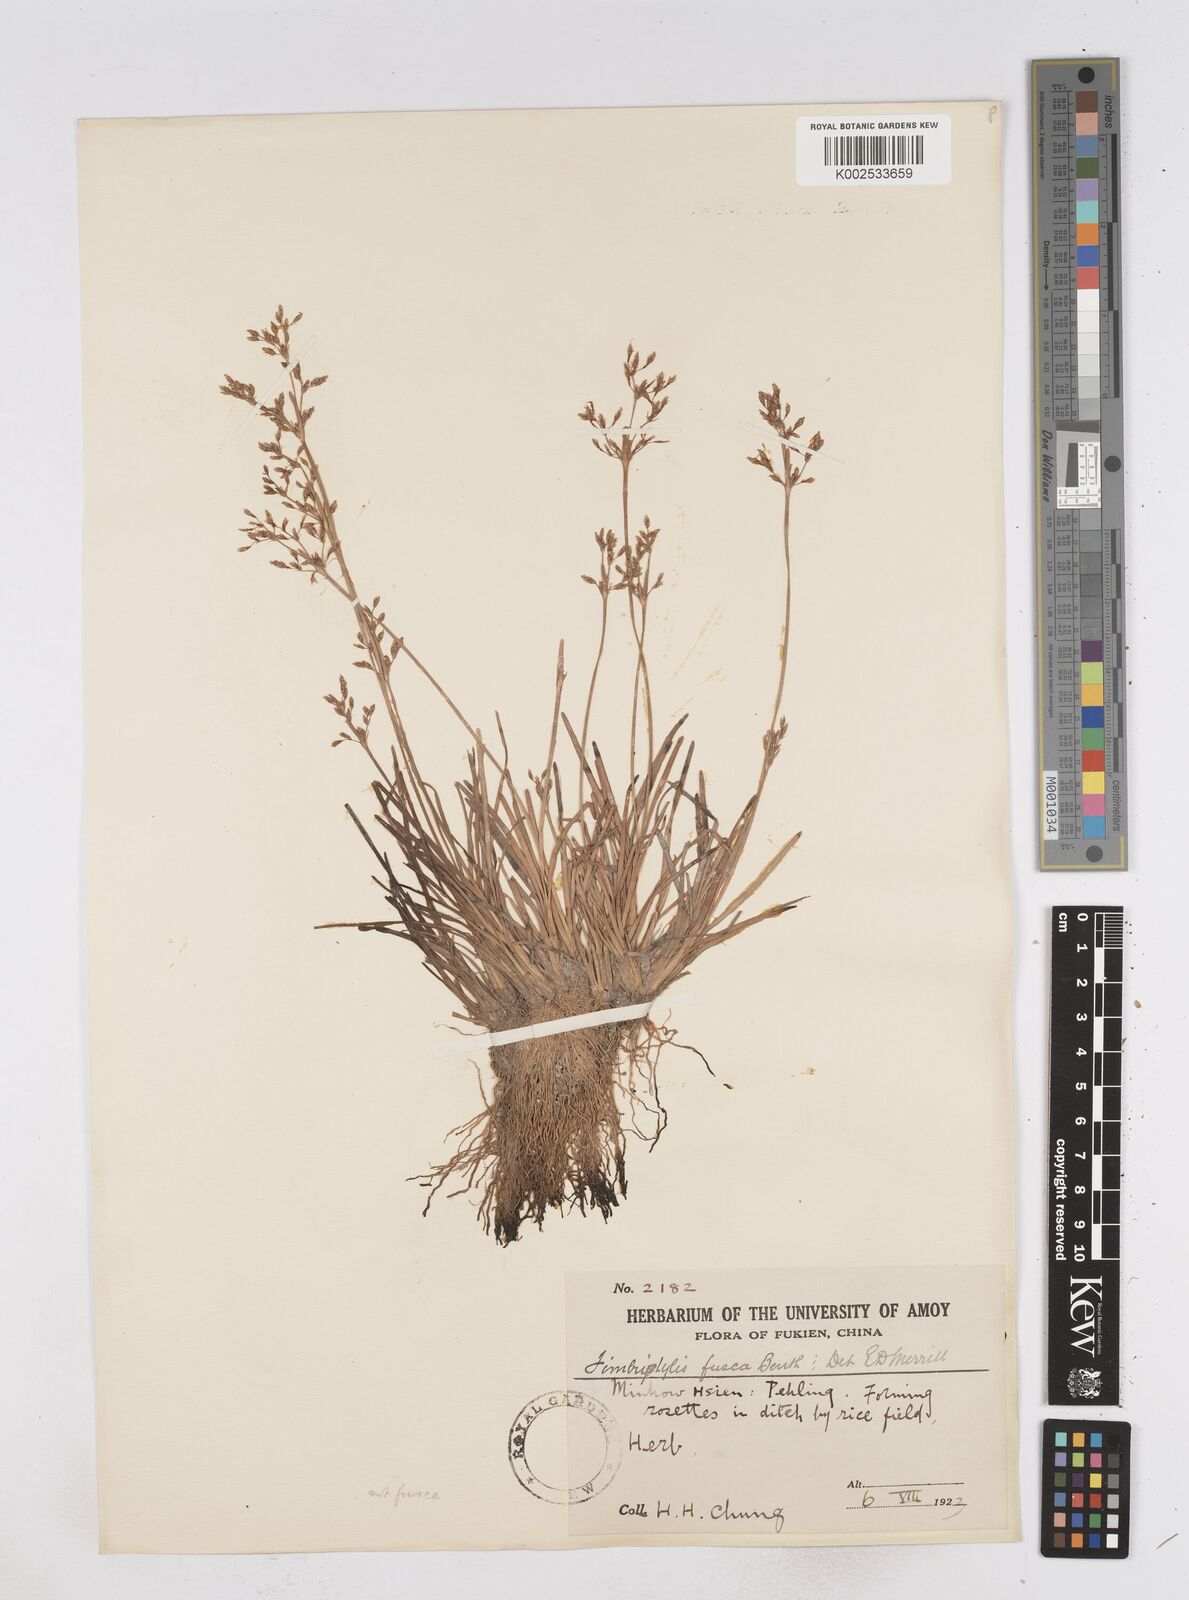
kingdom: Plantae
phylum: Tracheophyta
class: Liliopsida
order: Poales
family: Cyperaceae
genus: Fimbristylis
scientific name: Fimbristylis fusca
